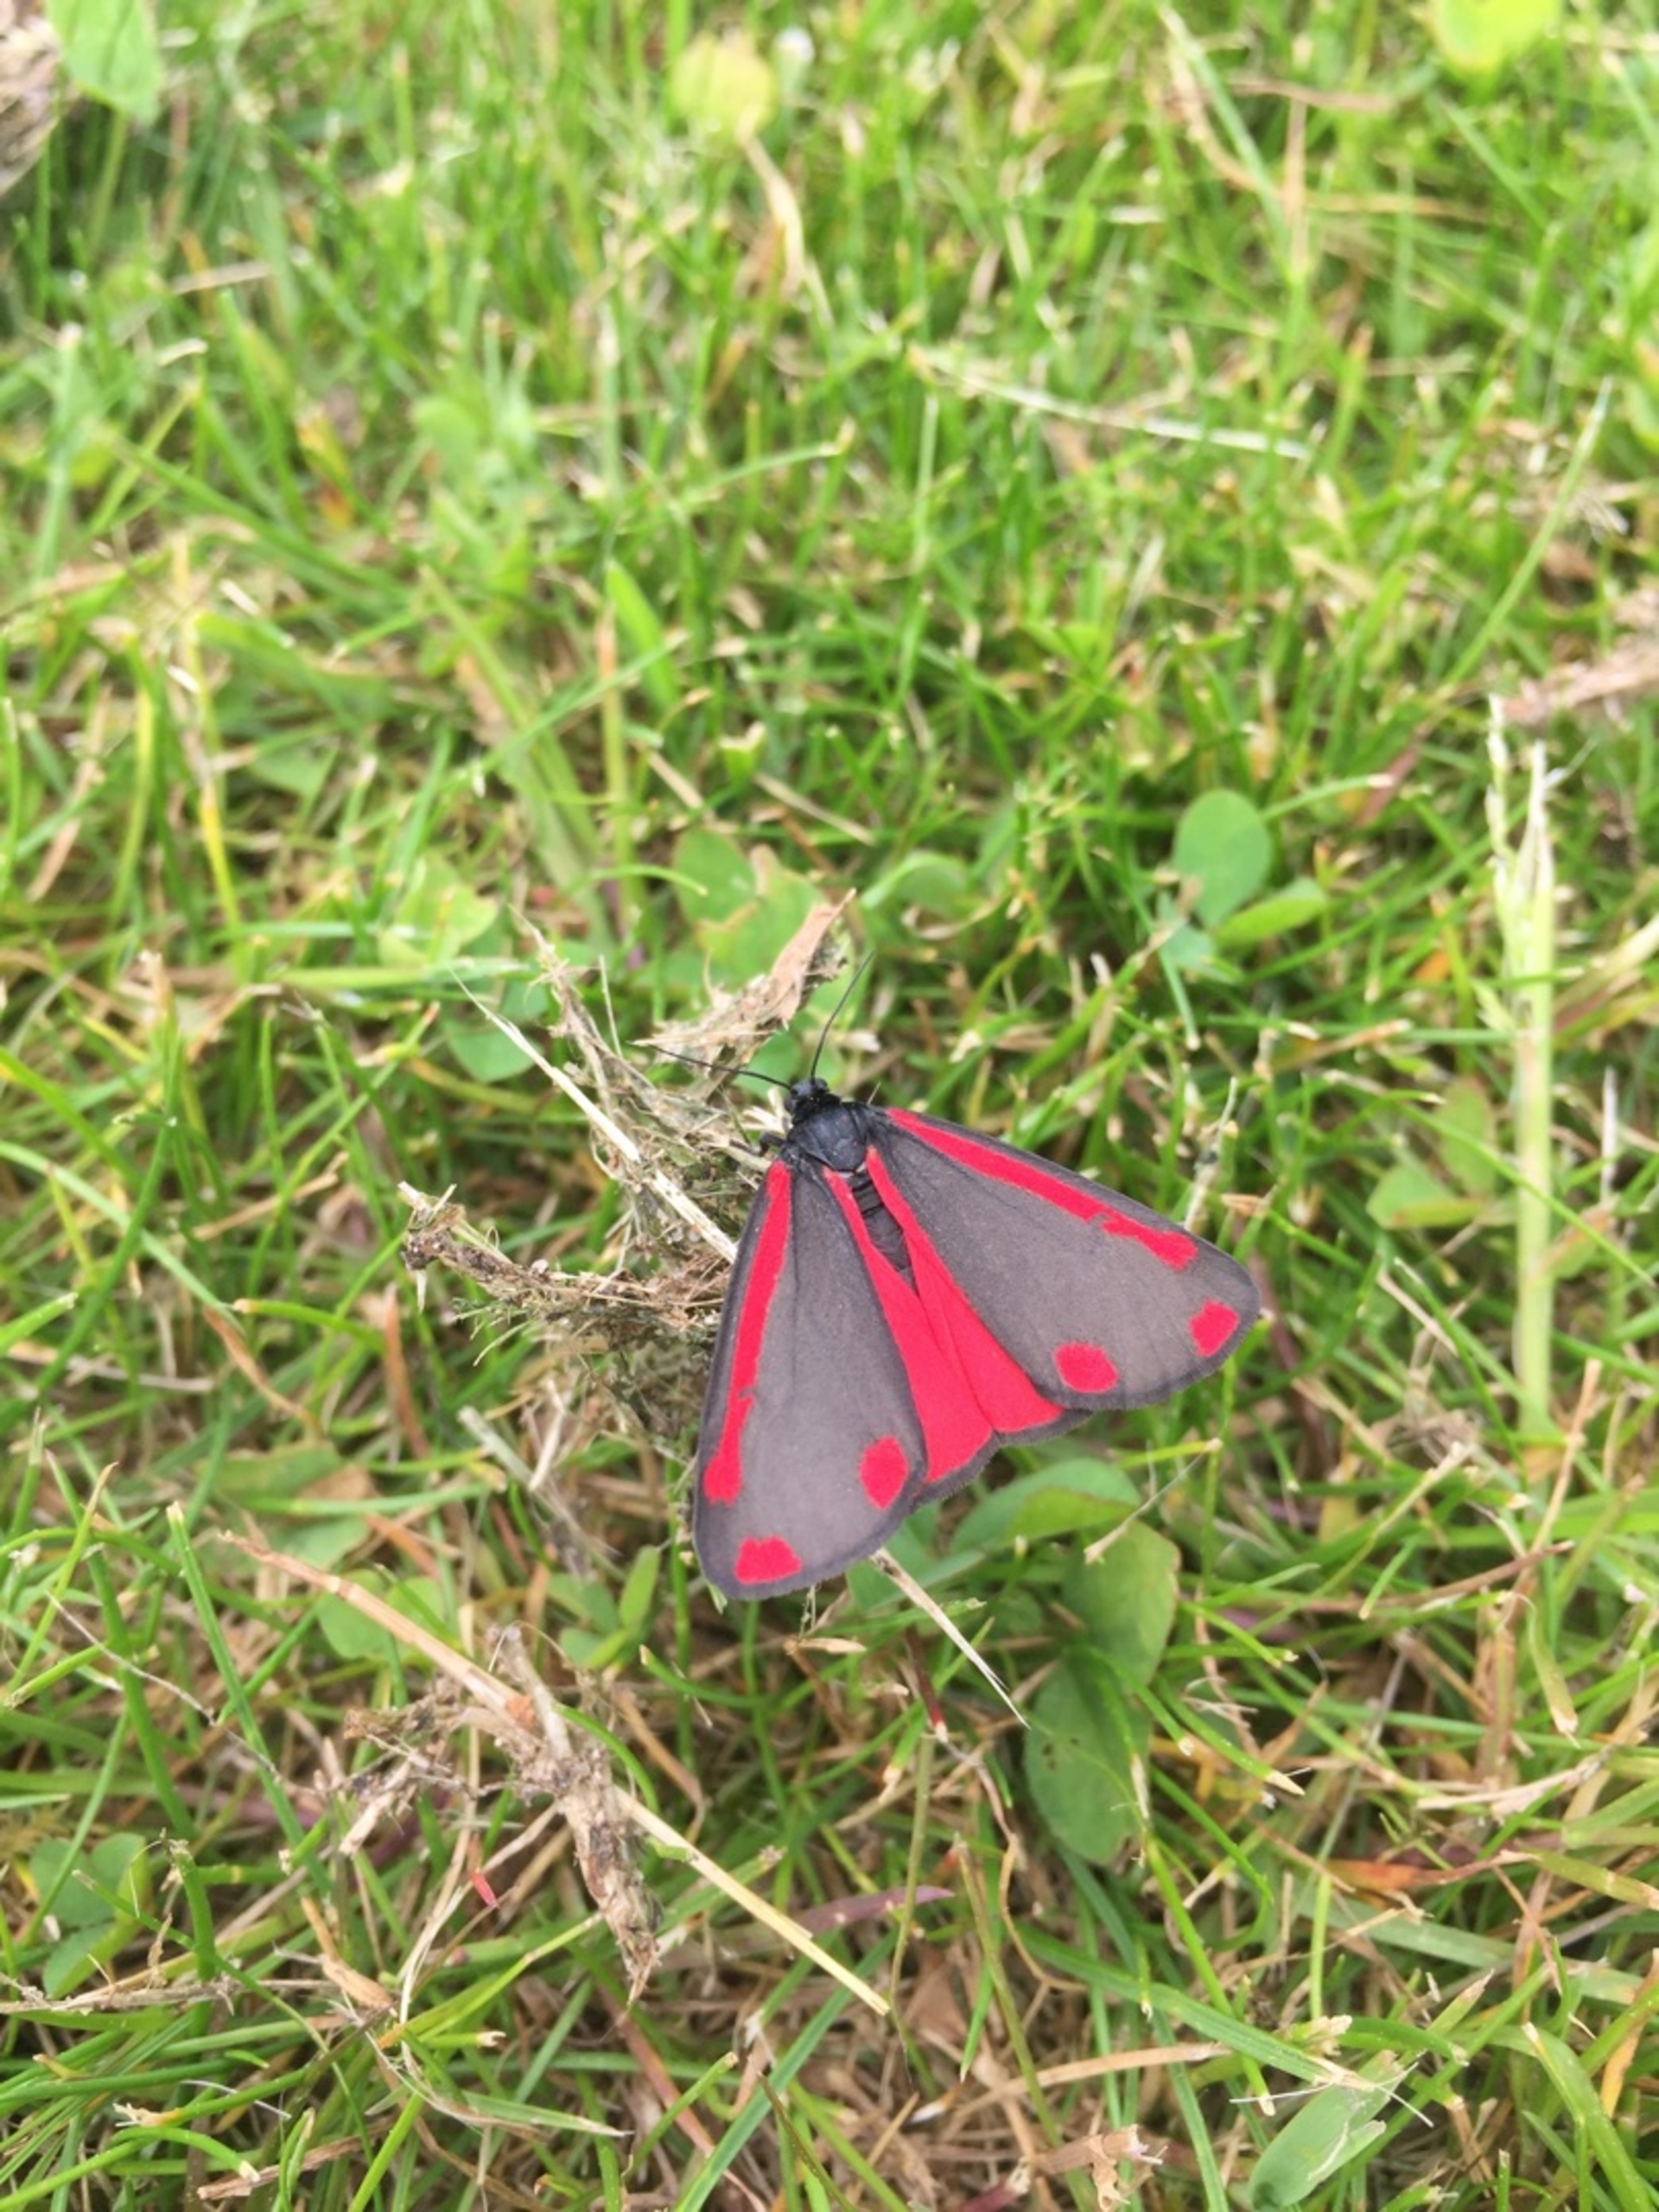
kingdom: Animalia
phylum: Arthropoda
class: Insecta
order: Lepidoptera
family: Erebidae
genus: Tyria
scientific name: Tyria jacobaeae
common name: Blodplet
